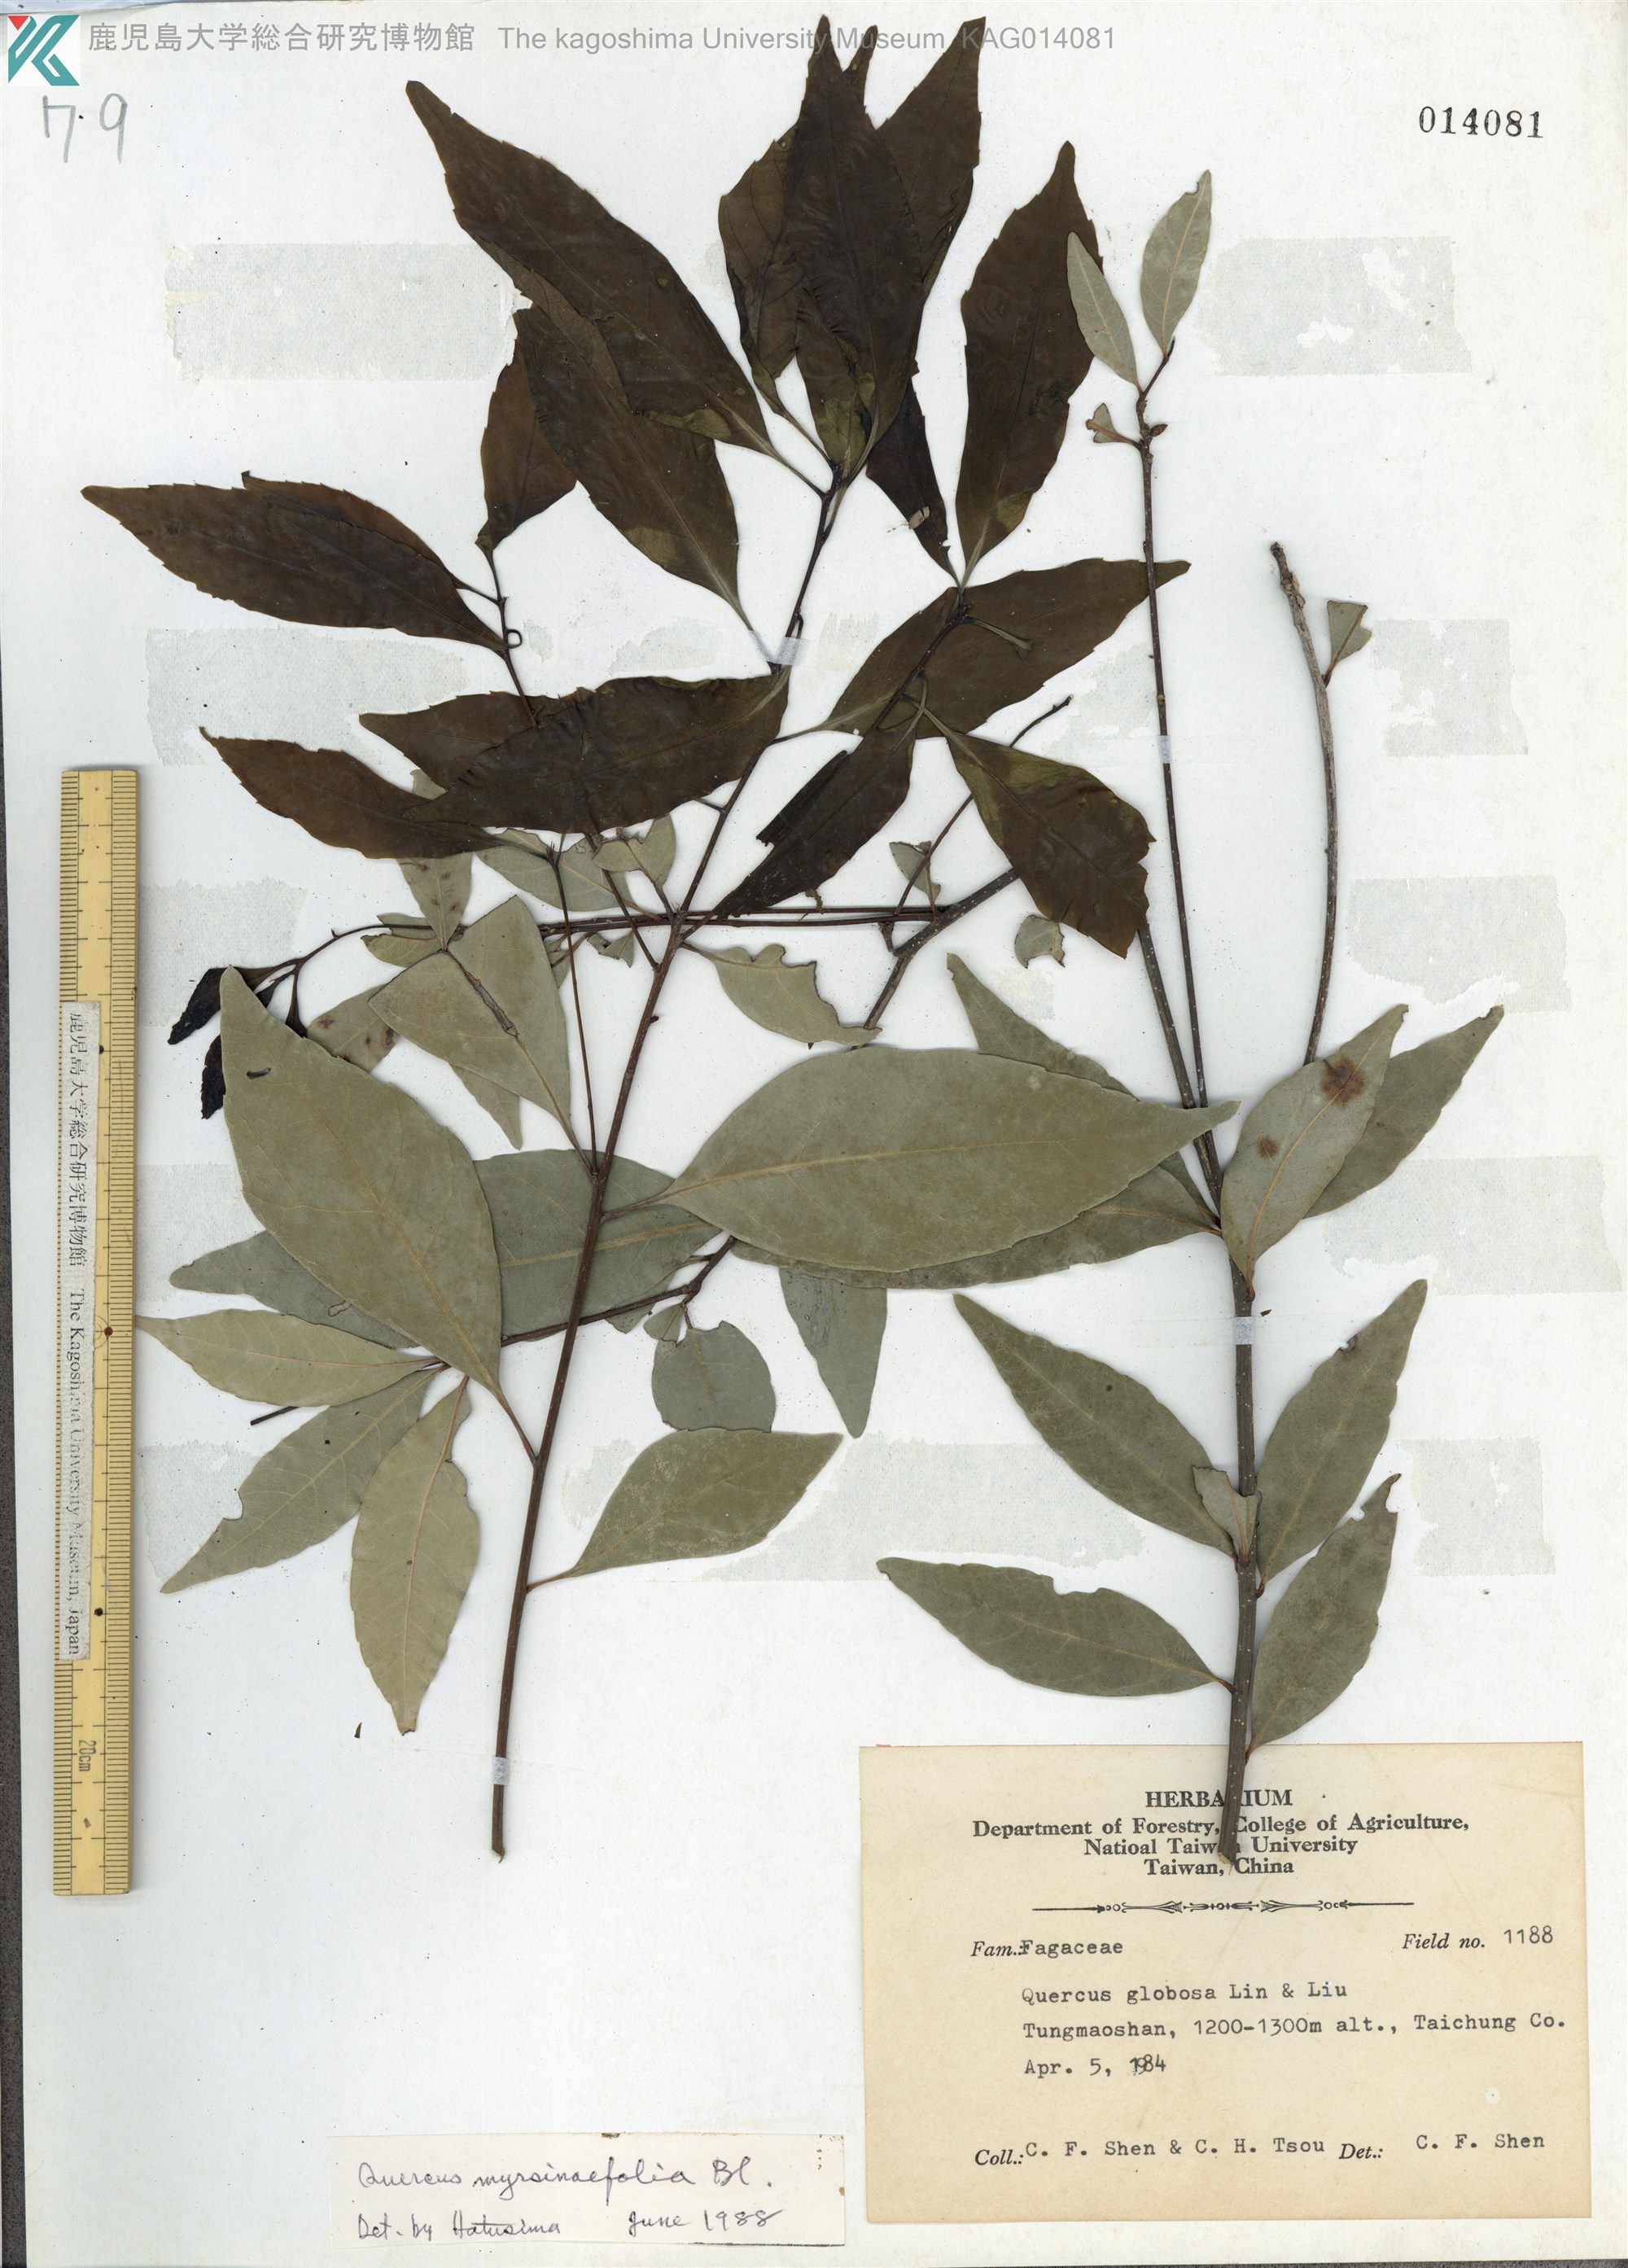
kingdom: Plantae
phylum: Tracheophyta
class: Magnoliopsida
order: Fagales
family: Fagaceae
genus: Quercus
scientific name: Quercus myrsinaefolia
